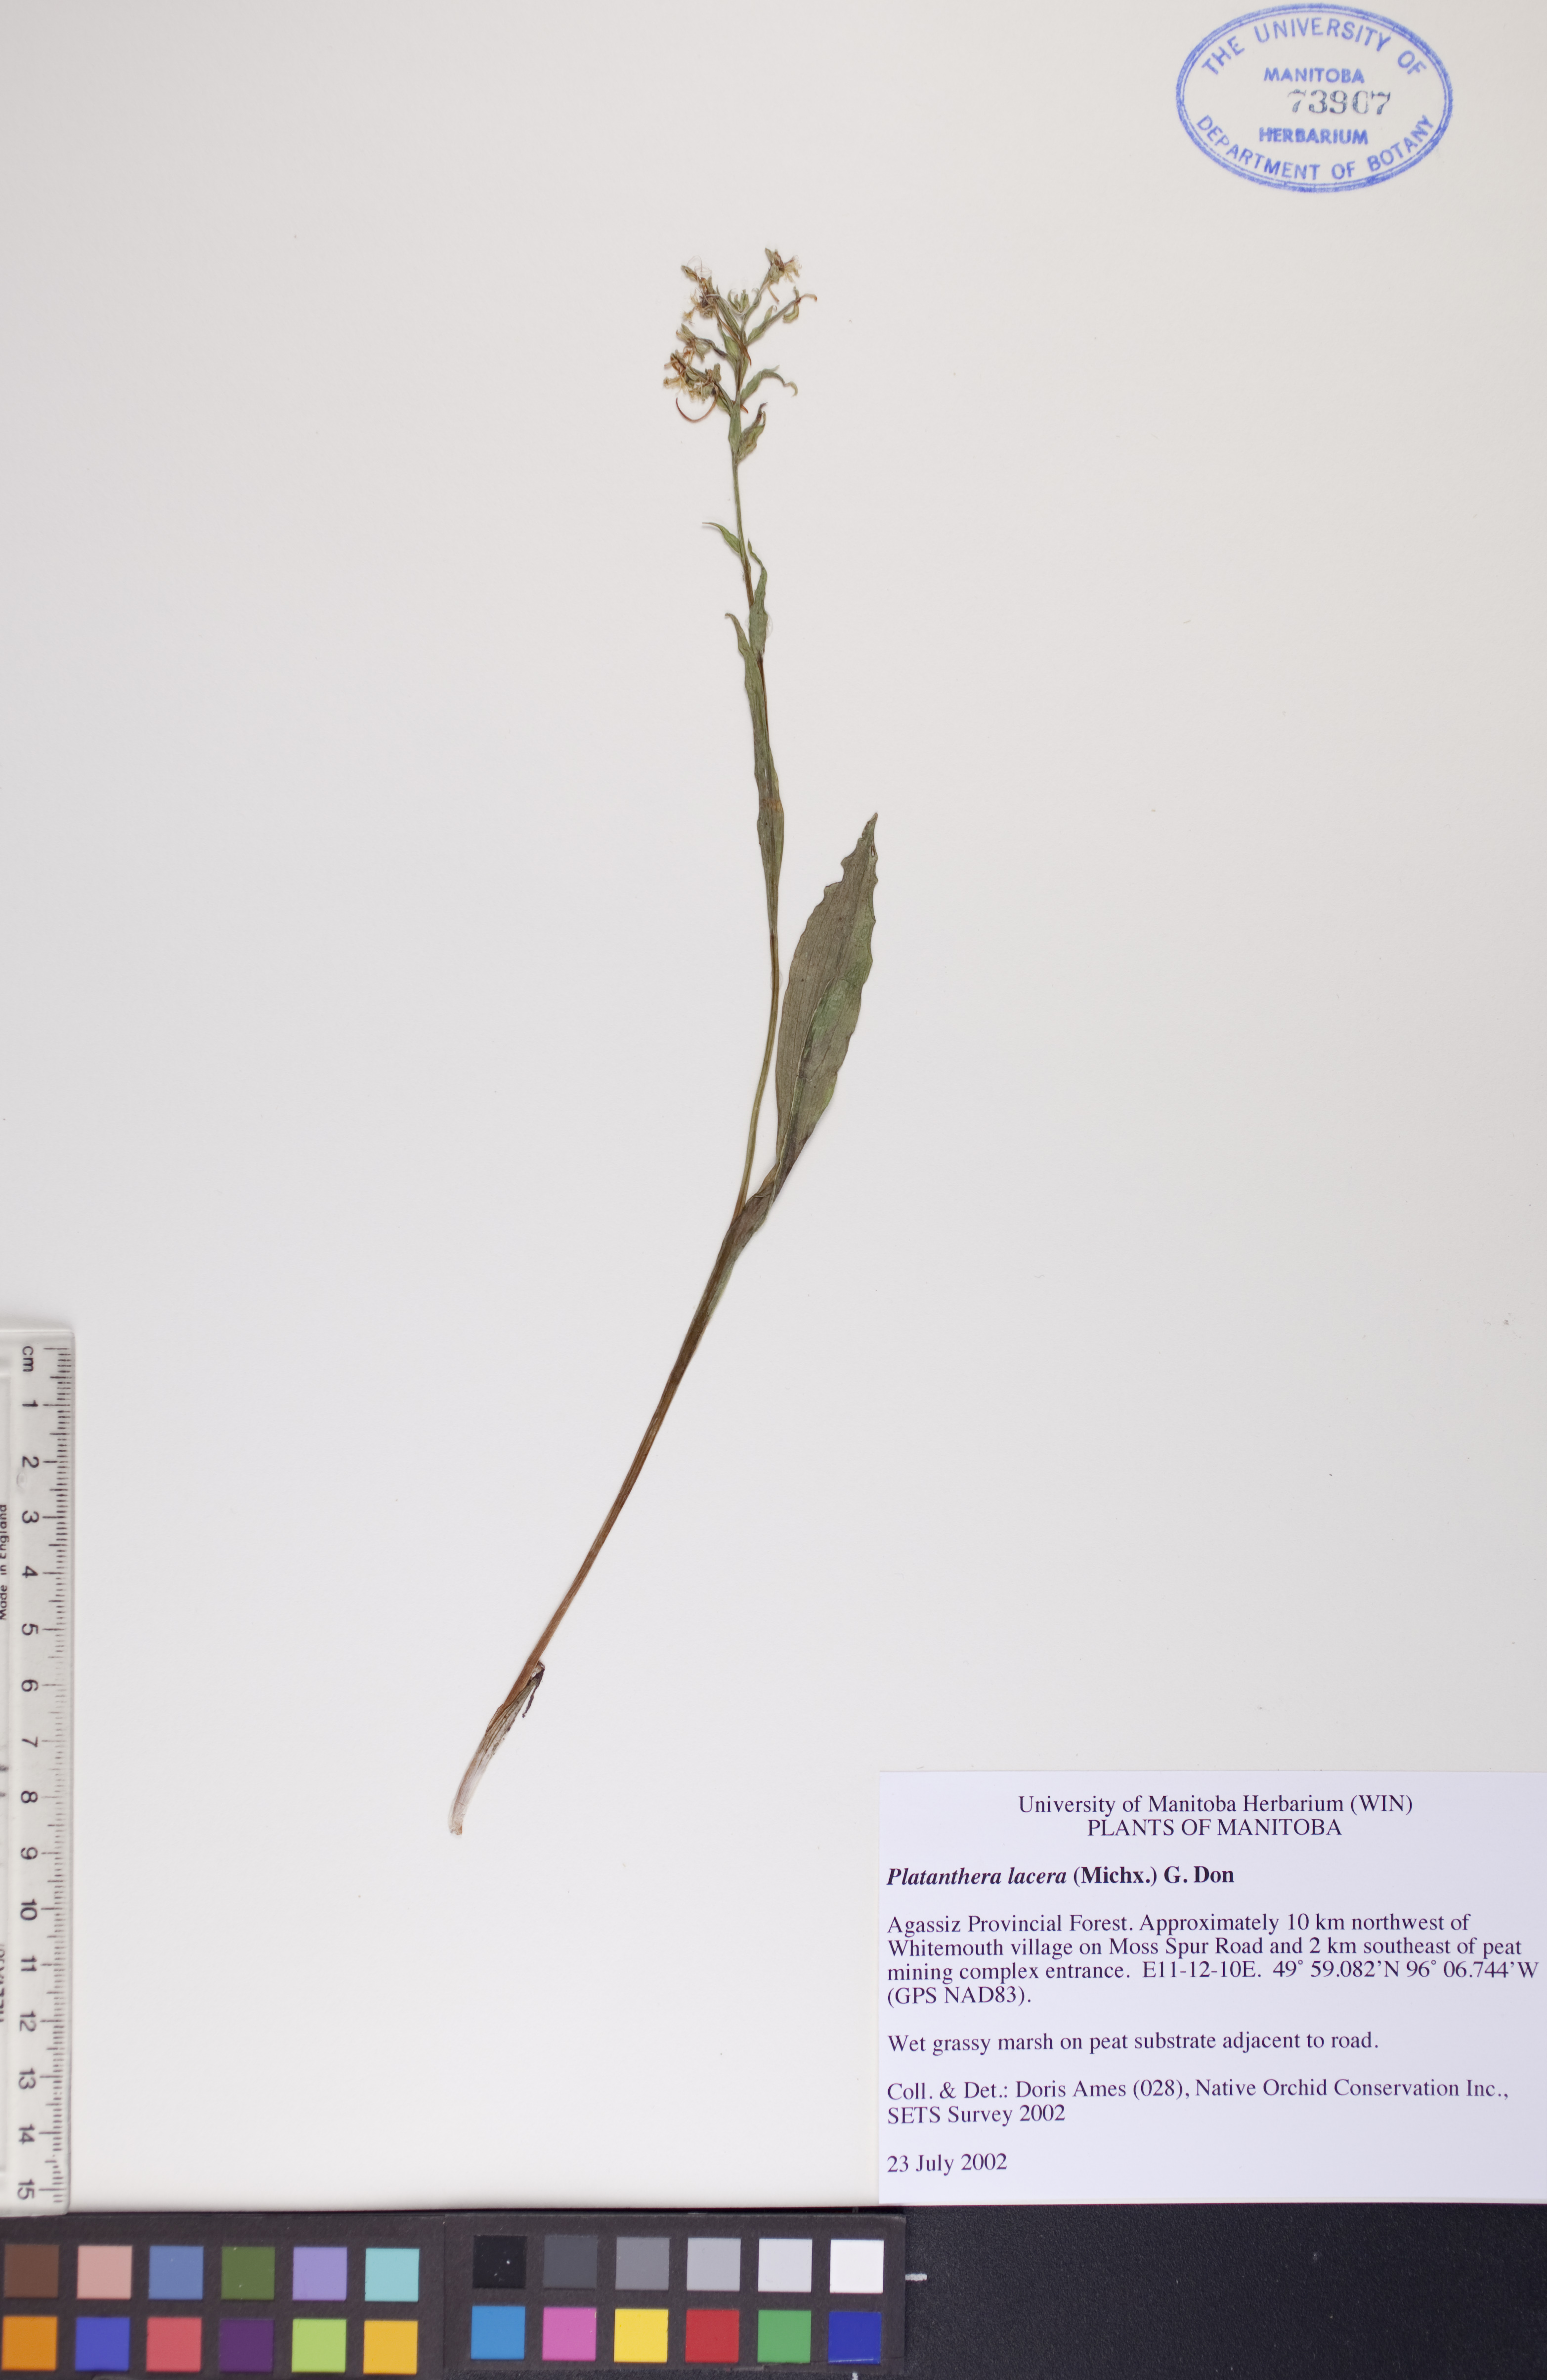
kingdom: Plantae
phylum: Tracheophyta
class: Liliopsida
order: Asparagales
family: Orchidaceae
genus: Platanthera
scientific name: Platanthera lacera
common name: Green fringed orchid
